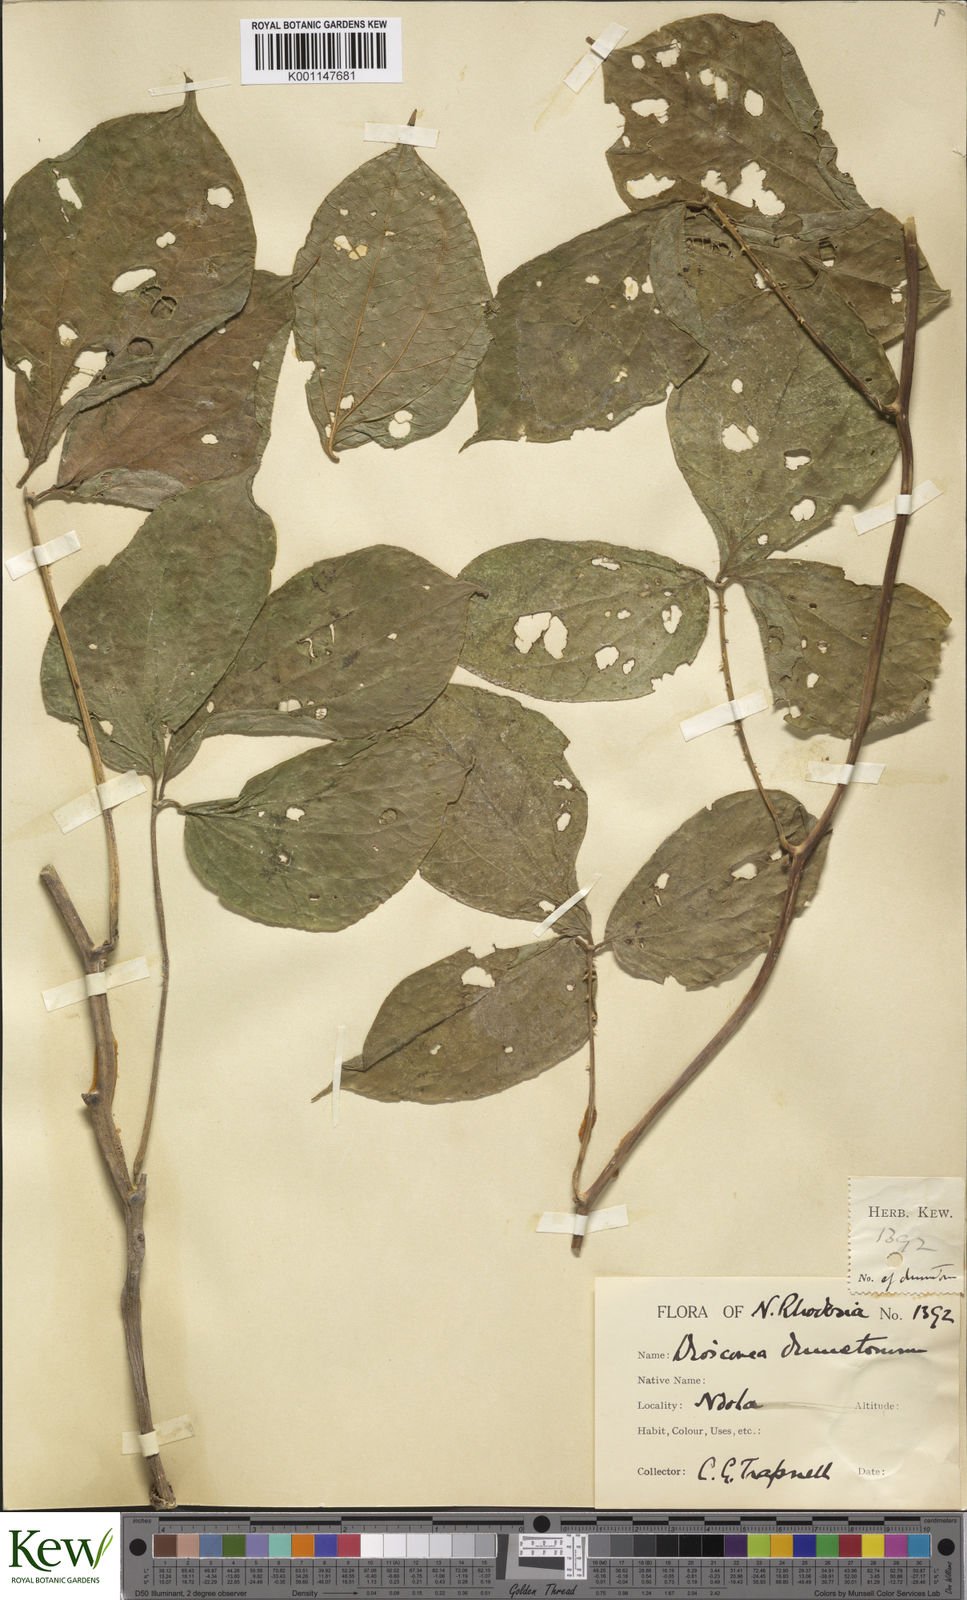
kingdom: Plantae
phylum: Tracheophyta
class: Liliopsida
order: Dioscoreales
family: Dioscoreaceae
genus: Dioscorea
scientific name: Dioscorea dumetorum
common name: African bitter yam
